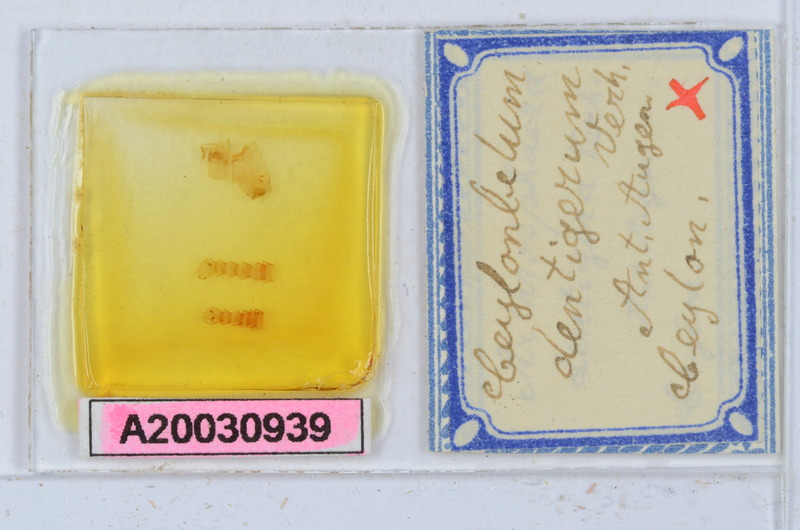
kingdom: Animalia
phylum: Arthropoda
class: Diplopoda
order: Sphaerotheriida
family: Arthrosphaeridae
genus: Arthrosphaera
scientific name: Arthrosphaera dentigera
